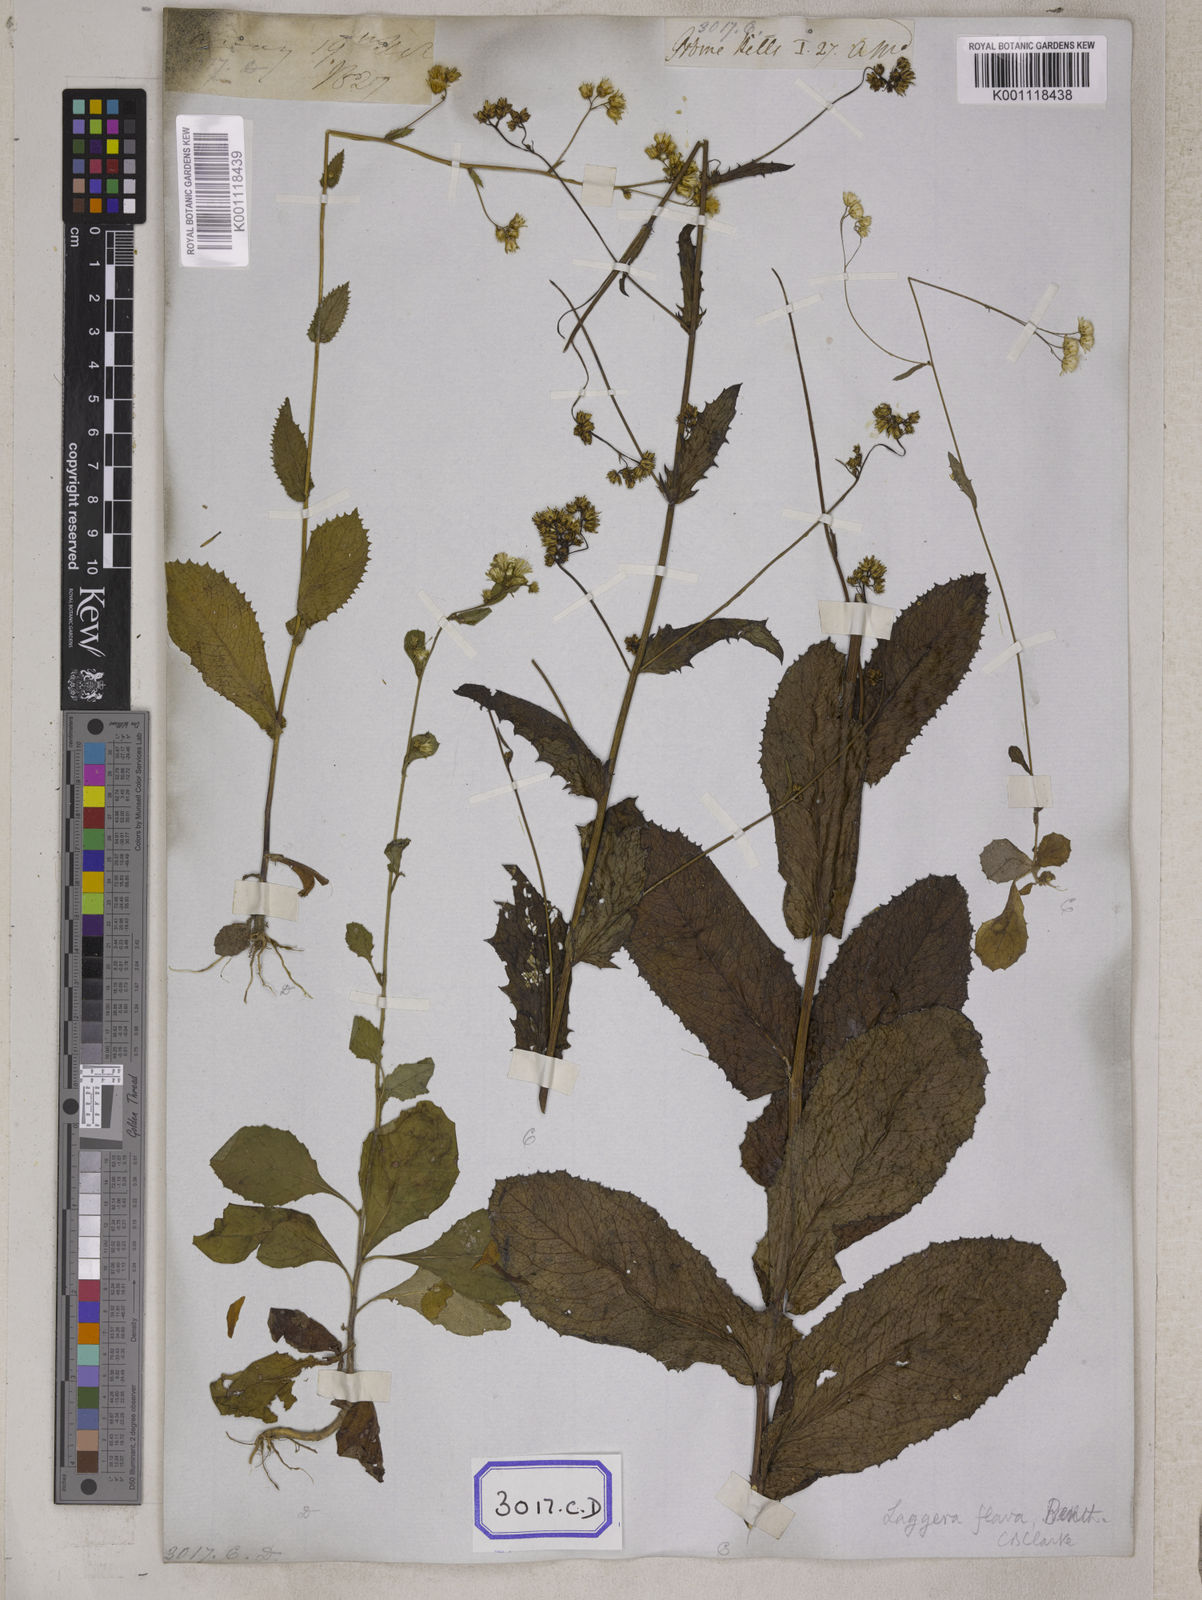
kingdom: Plantae
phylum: Tracheophyta
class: Magnoliopsida
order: Asterales
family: Asteraceae
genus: Blumea
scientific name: Blumea sessiliflora
